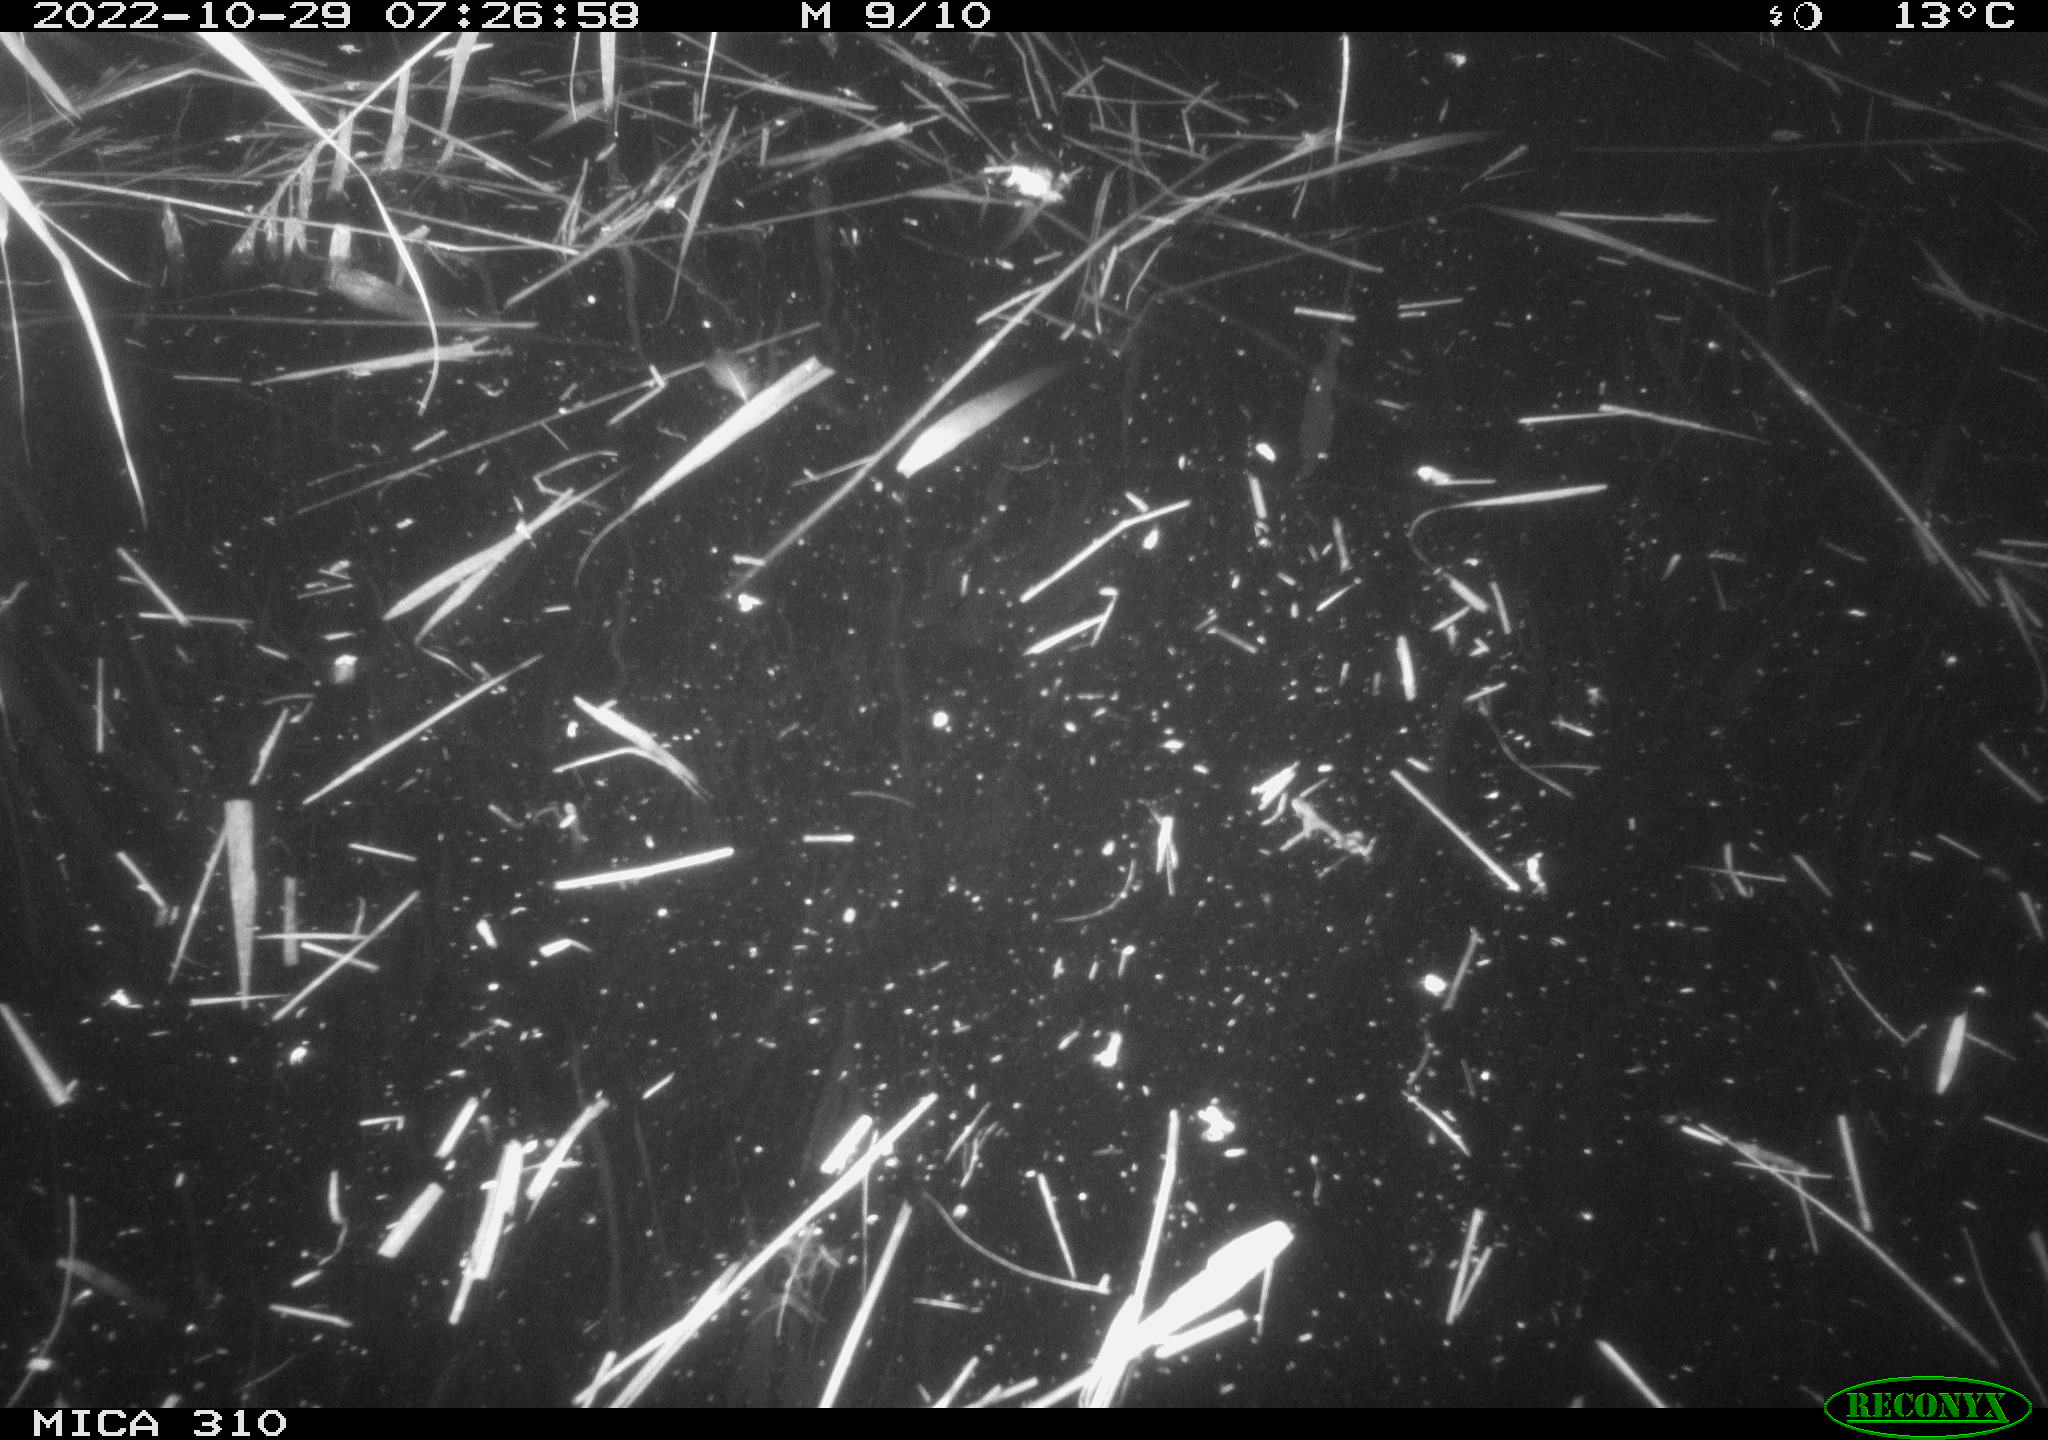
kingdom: Animalia
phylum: Chordata
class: Mammalia
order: Rodentia
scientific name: Rodentia
